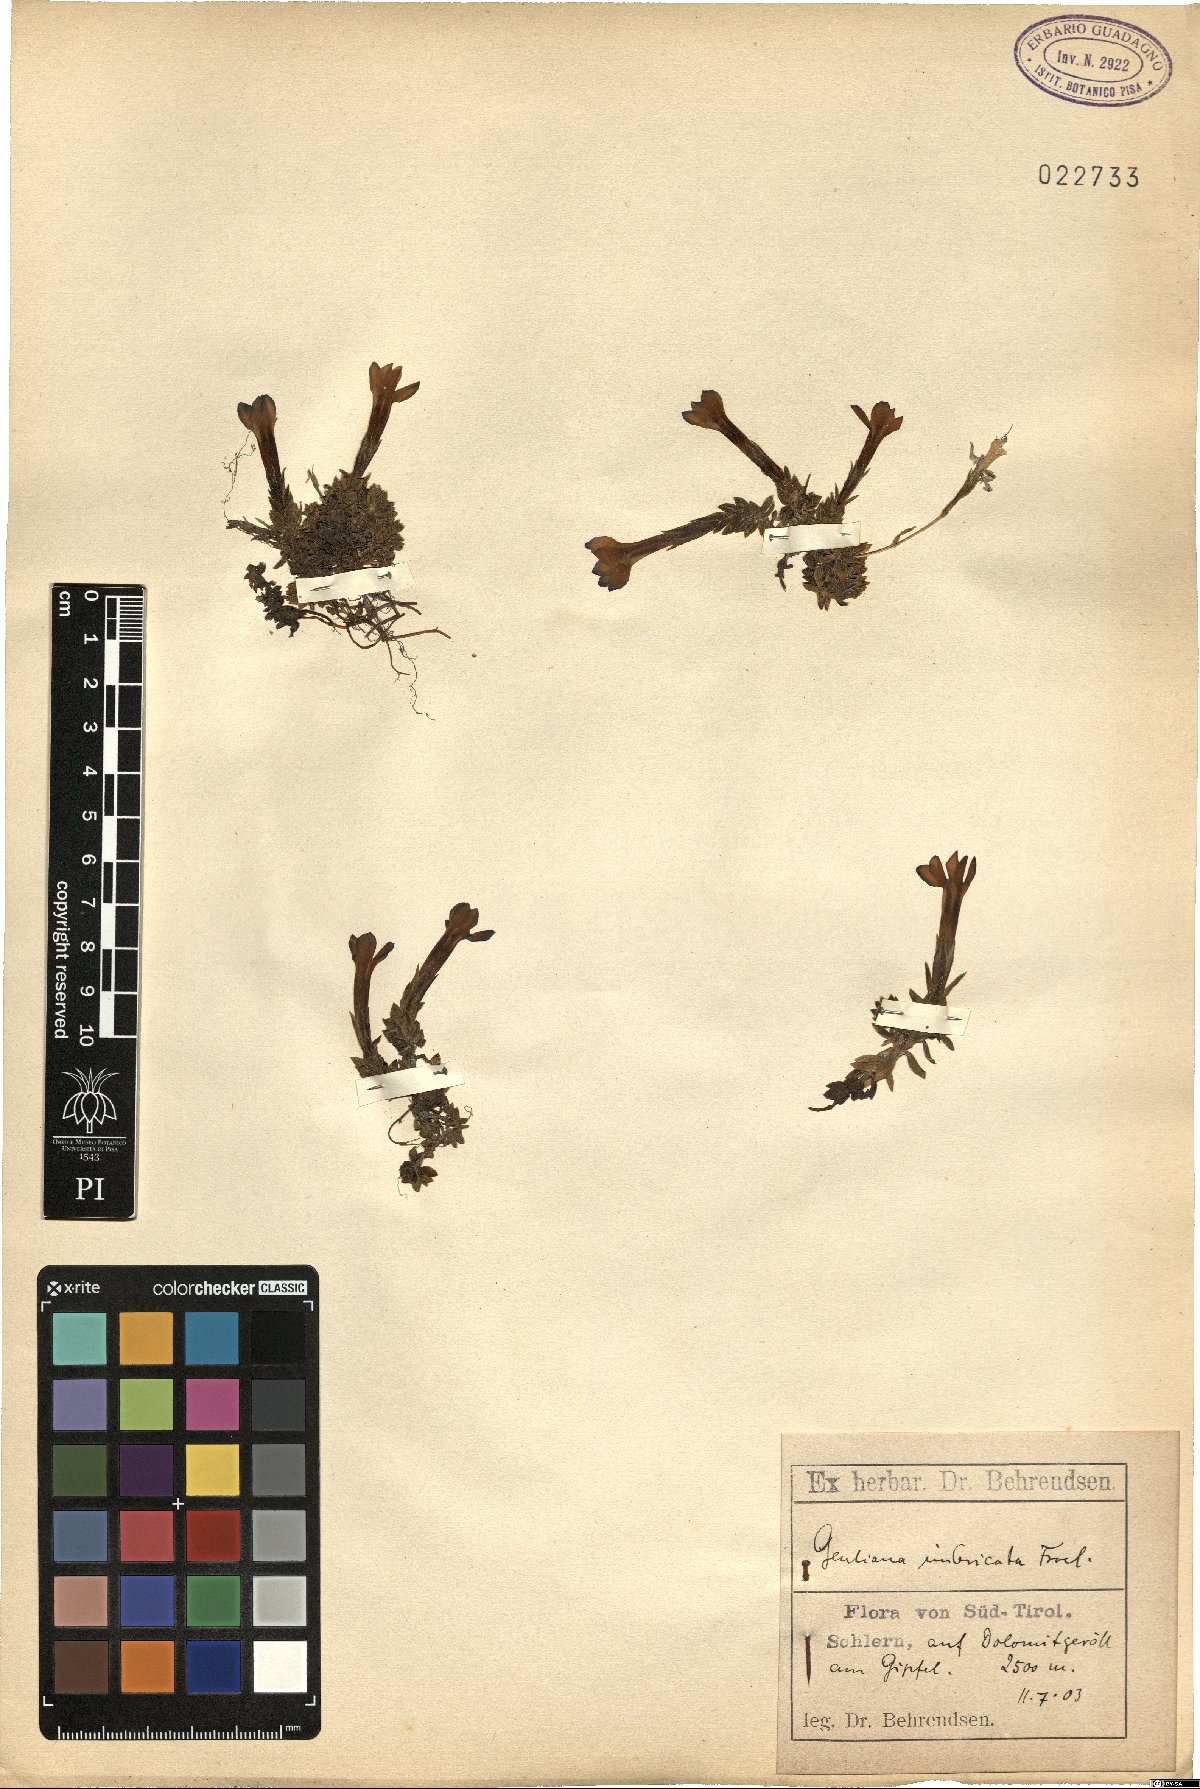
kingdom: Plantae
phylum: Tracheophyta
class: Magnoliopsida
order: Gentianales
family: Gentianaceae
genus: Gentiana
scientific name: Gentiana bavarica
